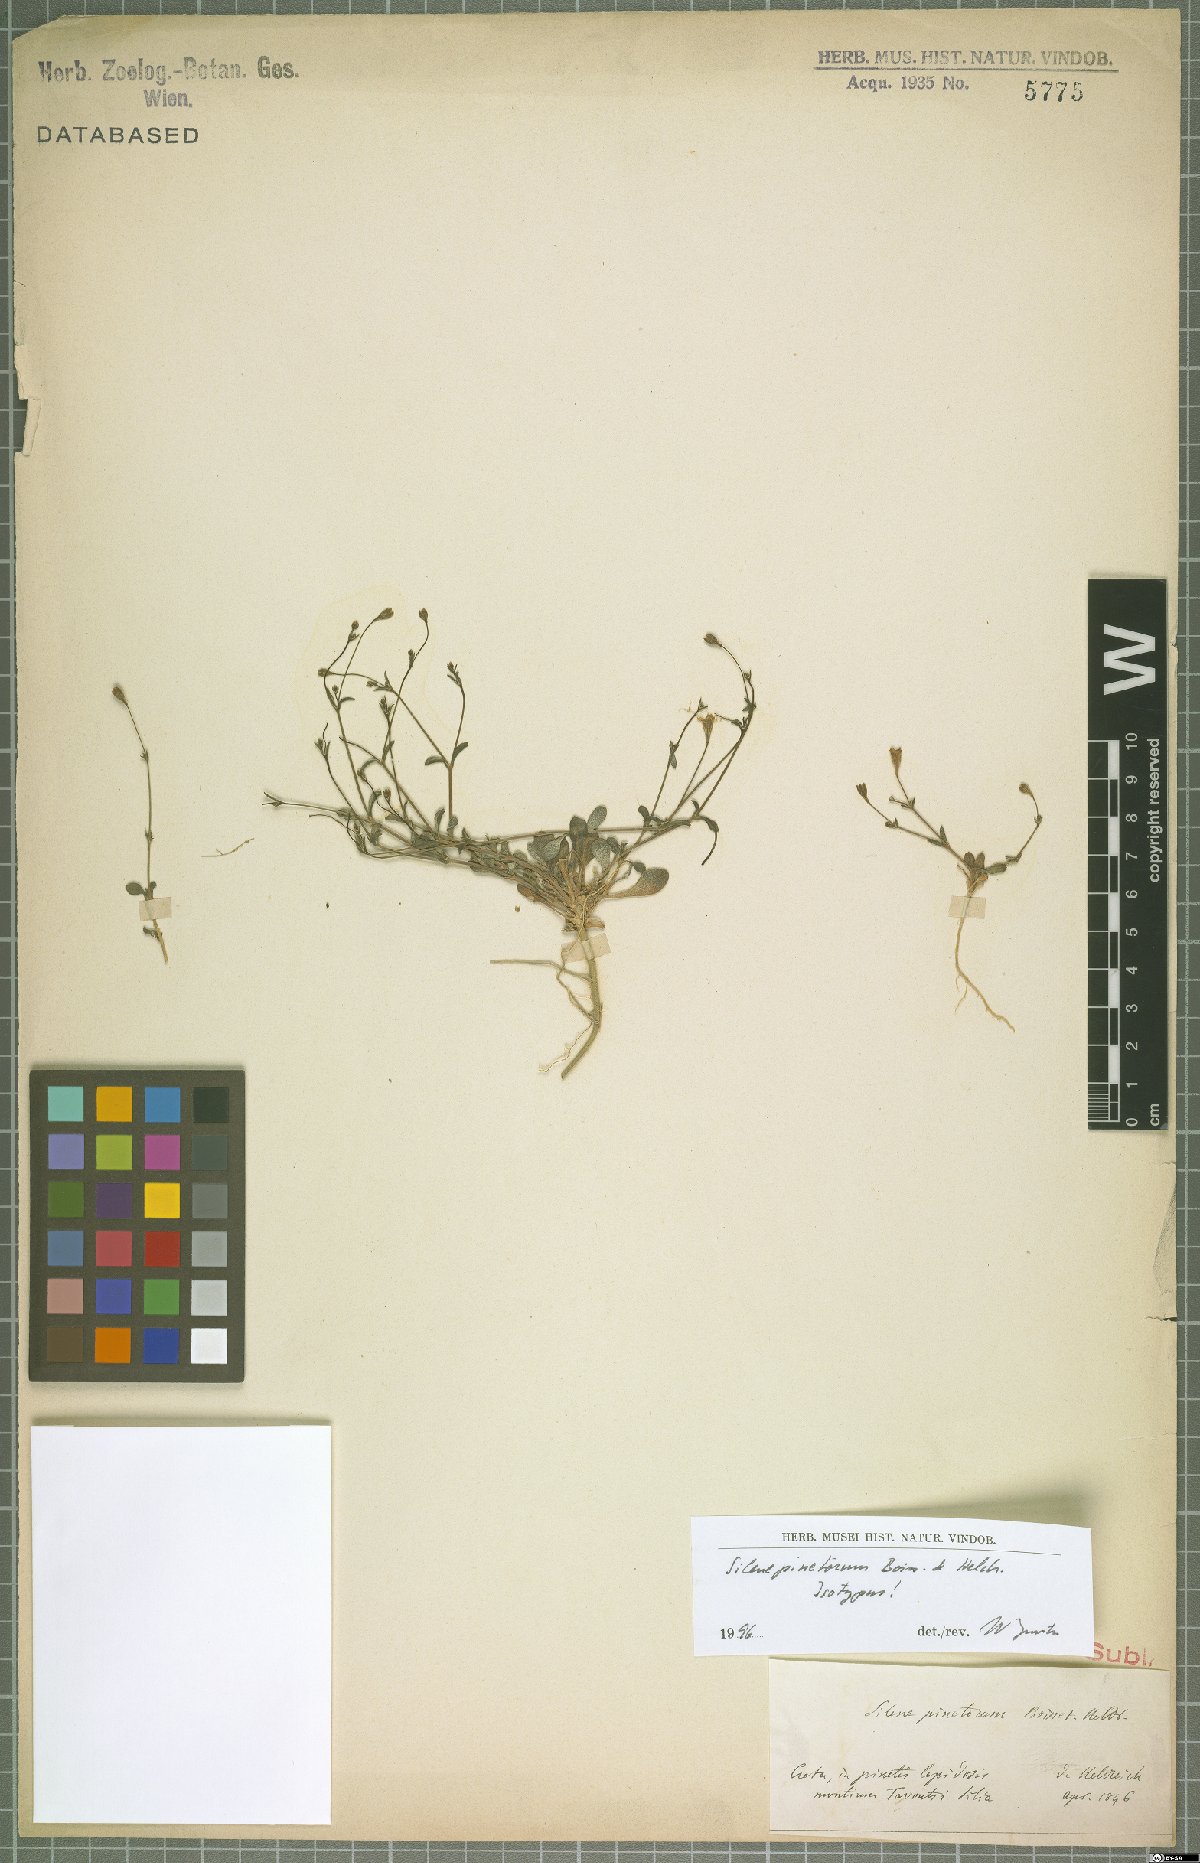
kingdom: Plantae
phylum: Tracheophyta
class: Magnoliopsida
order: Caryophyllales
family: Caryophyllaceae
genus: Silene
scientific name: Silene pinetorum
